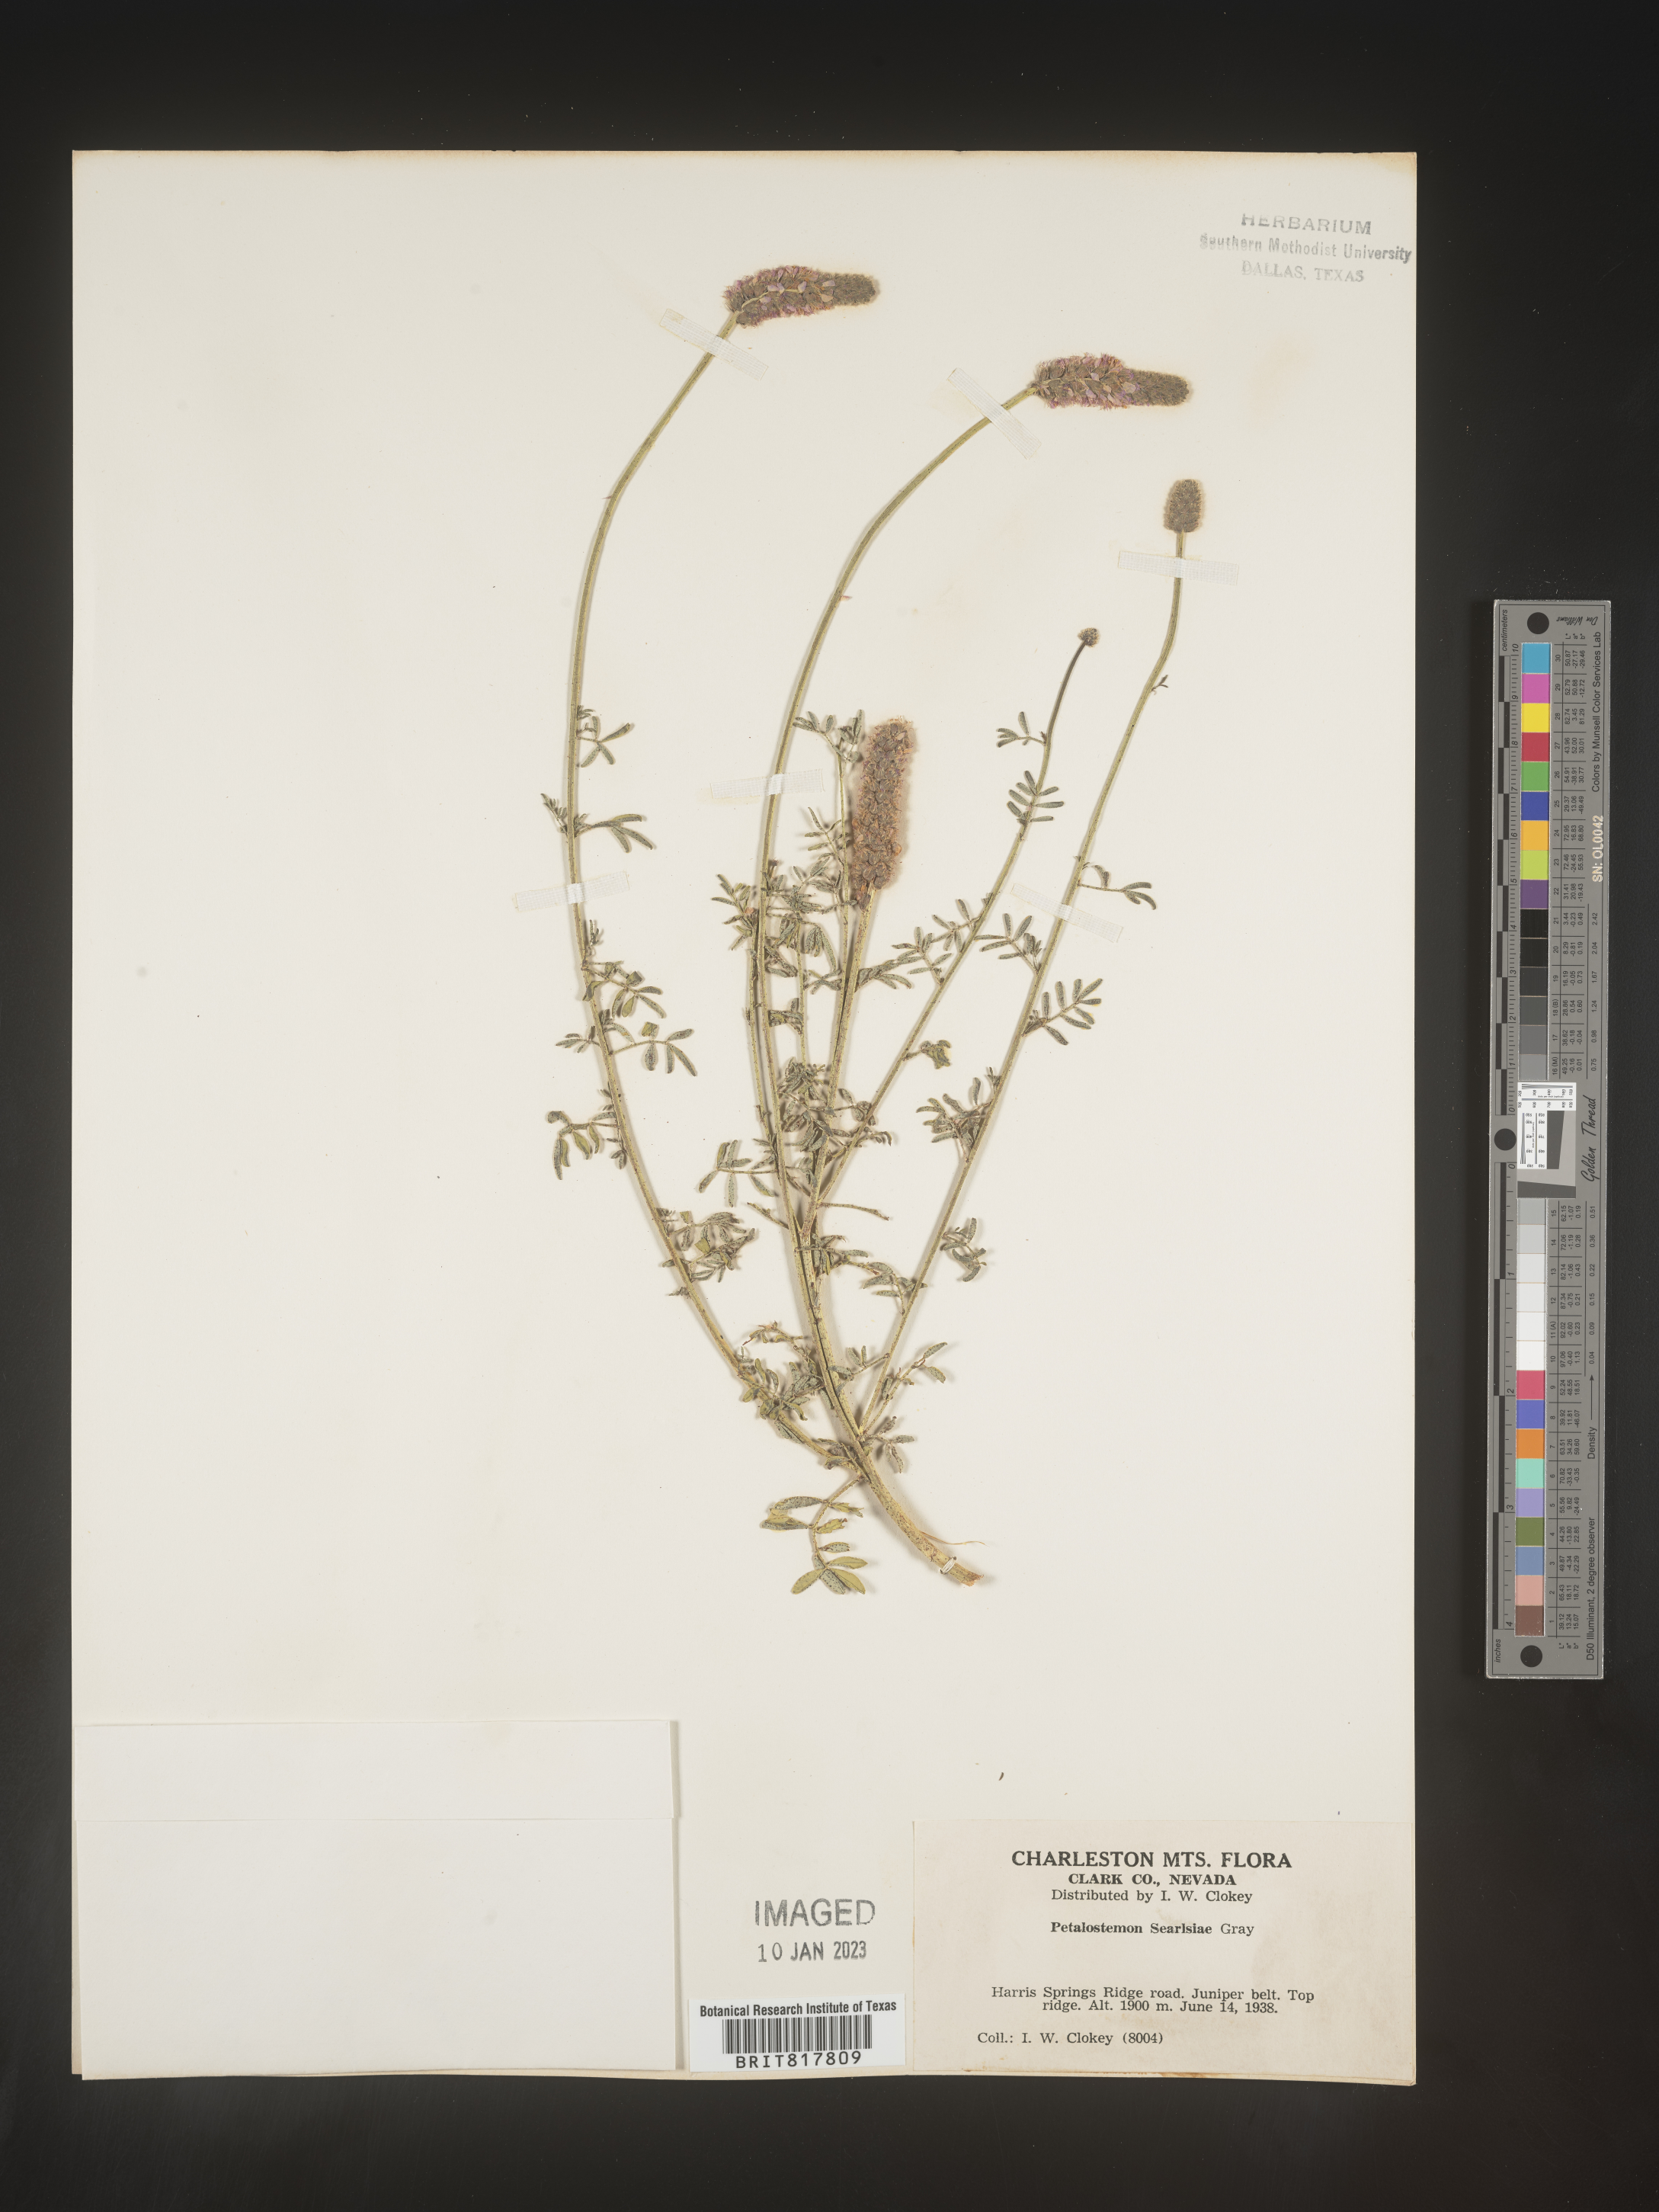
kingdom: Plantae
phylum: Tracheophyta
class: Magnoliopsida
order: Fabales
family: Fabaceae
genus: Dalea
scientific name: Dalea
